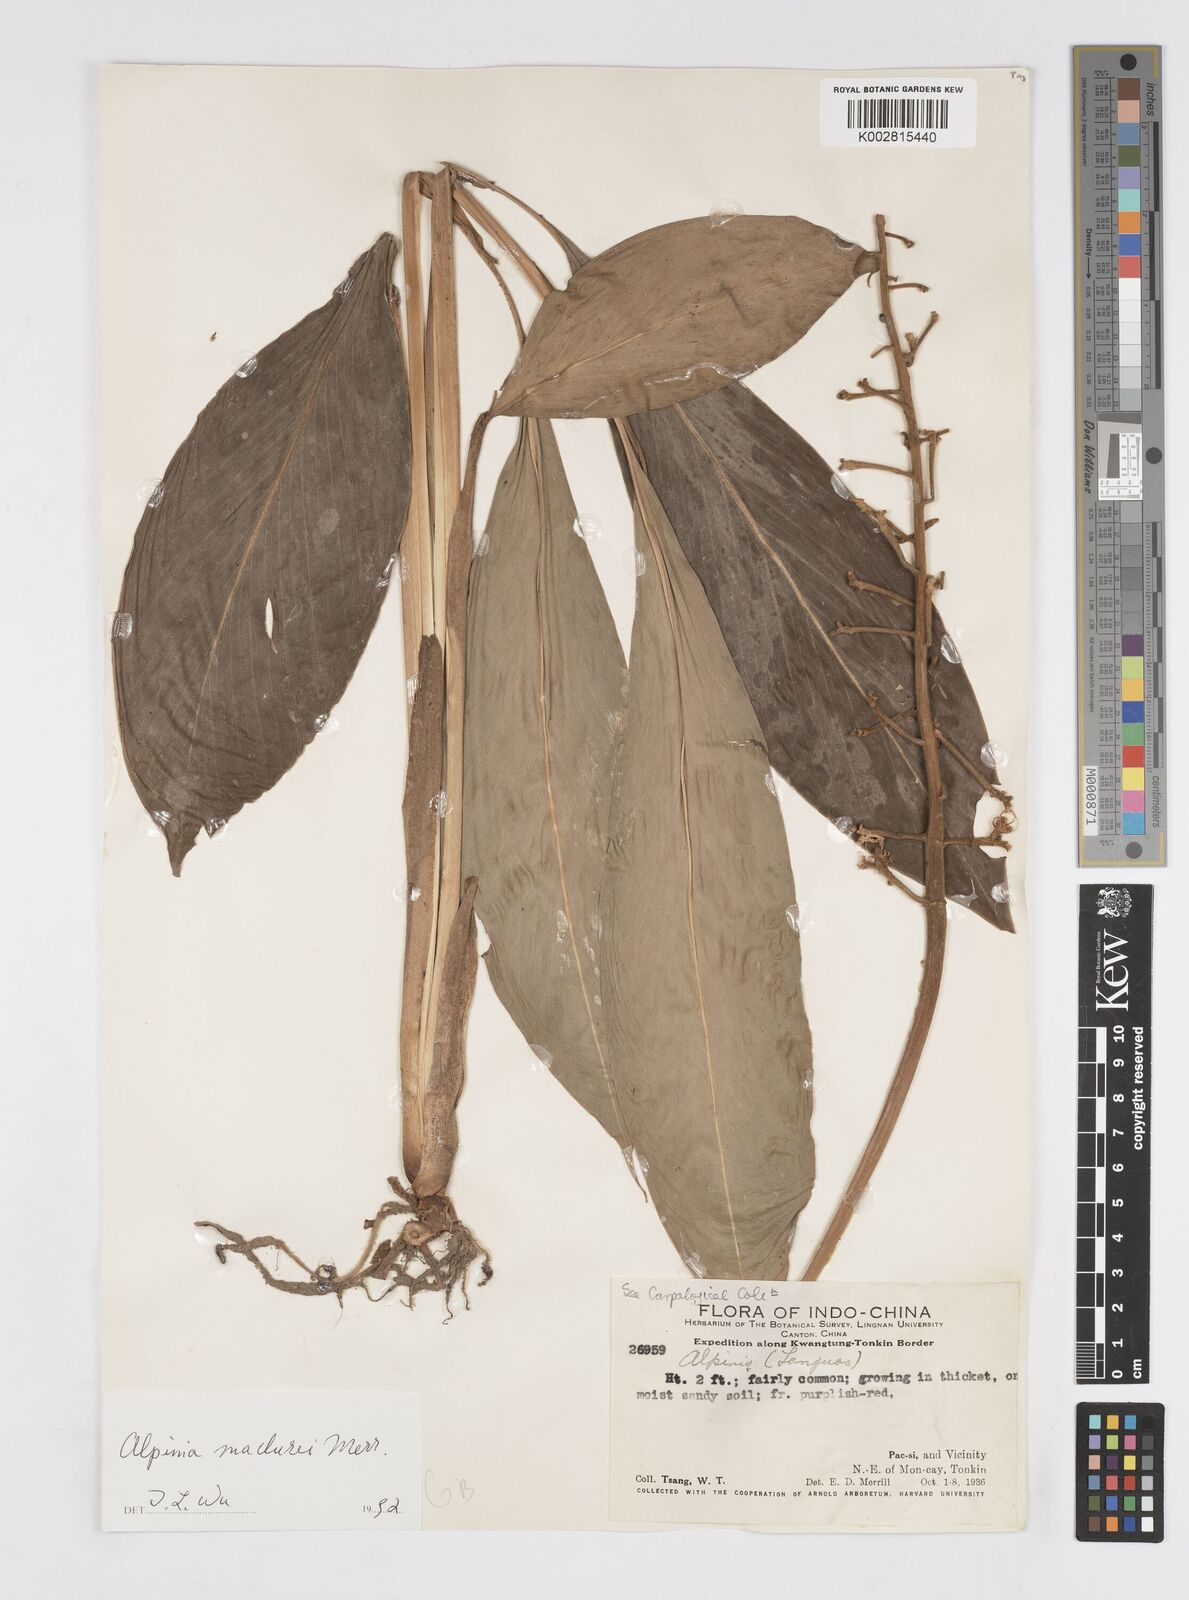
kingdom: Plantae
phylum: Tracheophyta
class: Liliopsida
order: Zingiberales
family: Zingiberaceae
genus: Alpinia
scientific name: Alpinia maclurei
